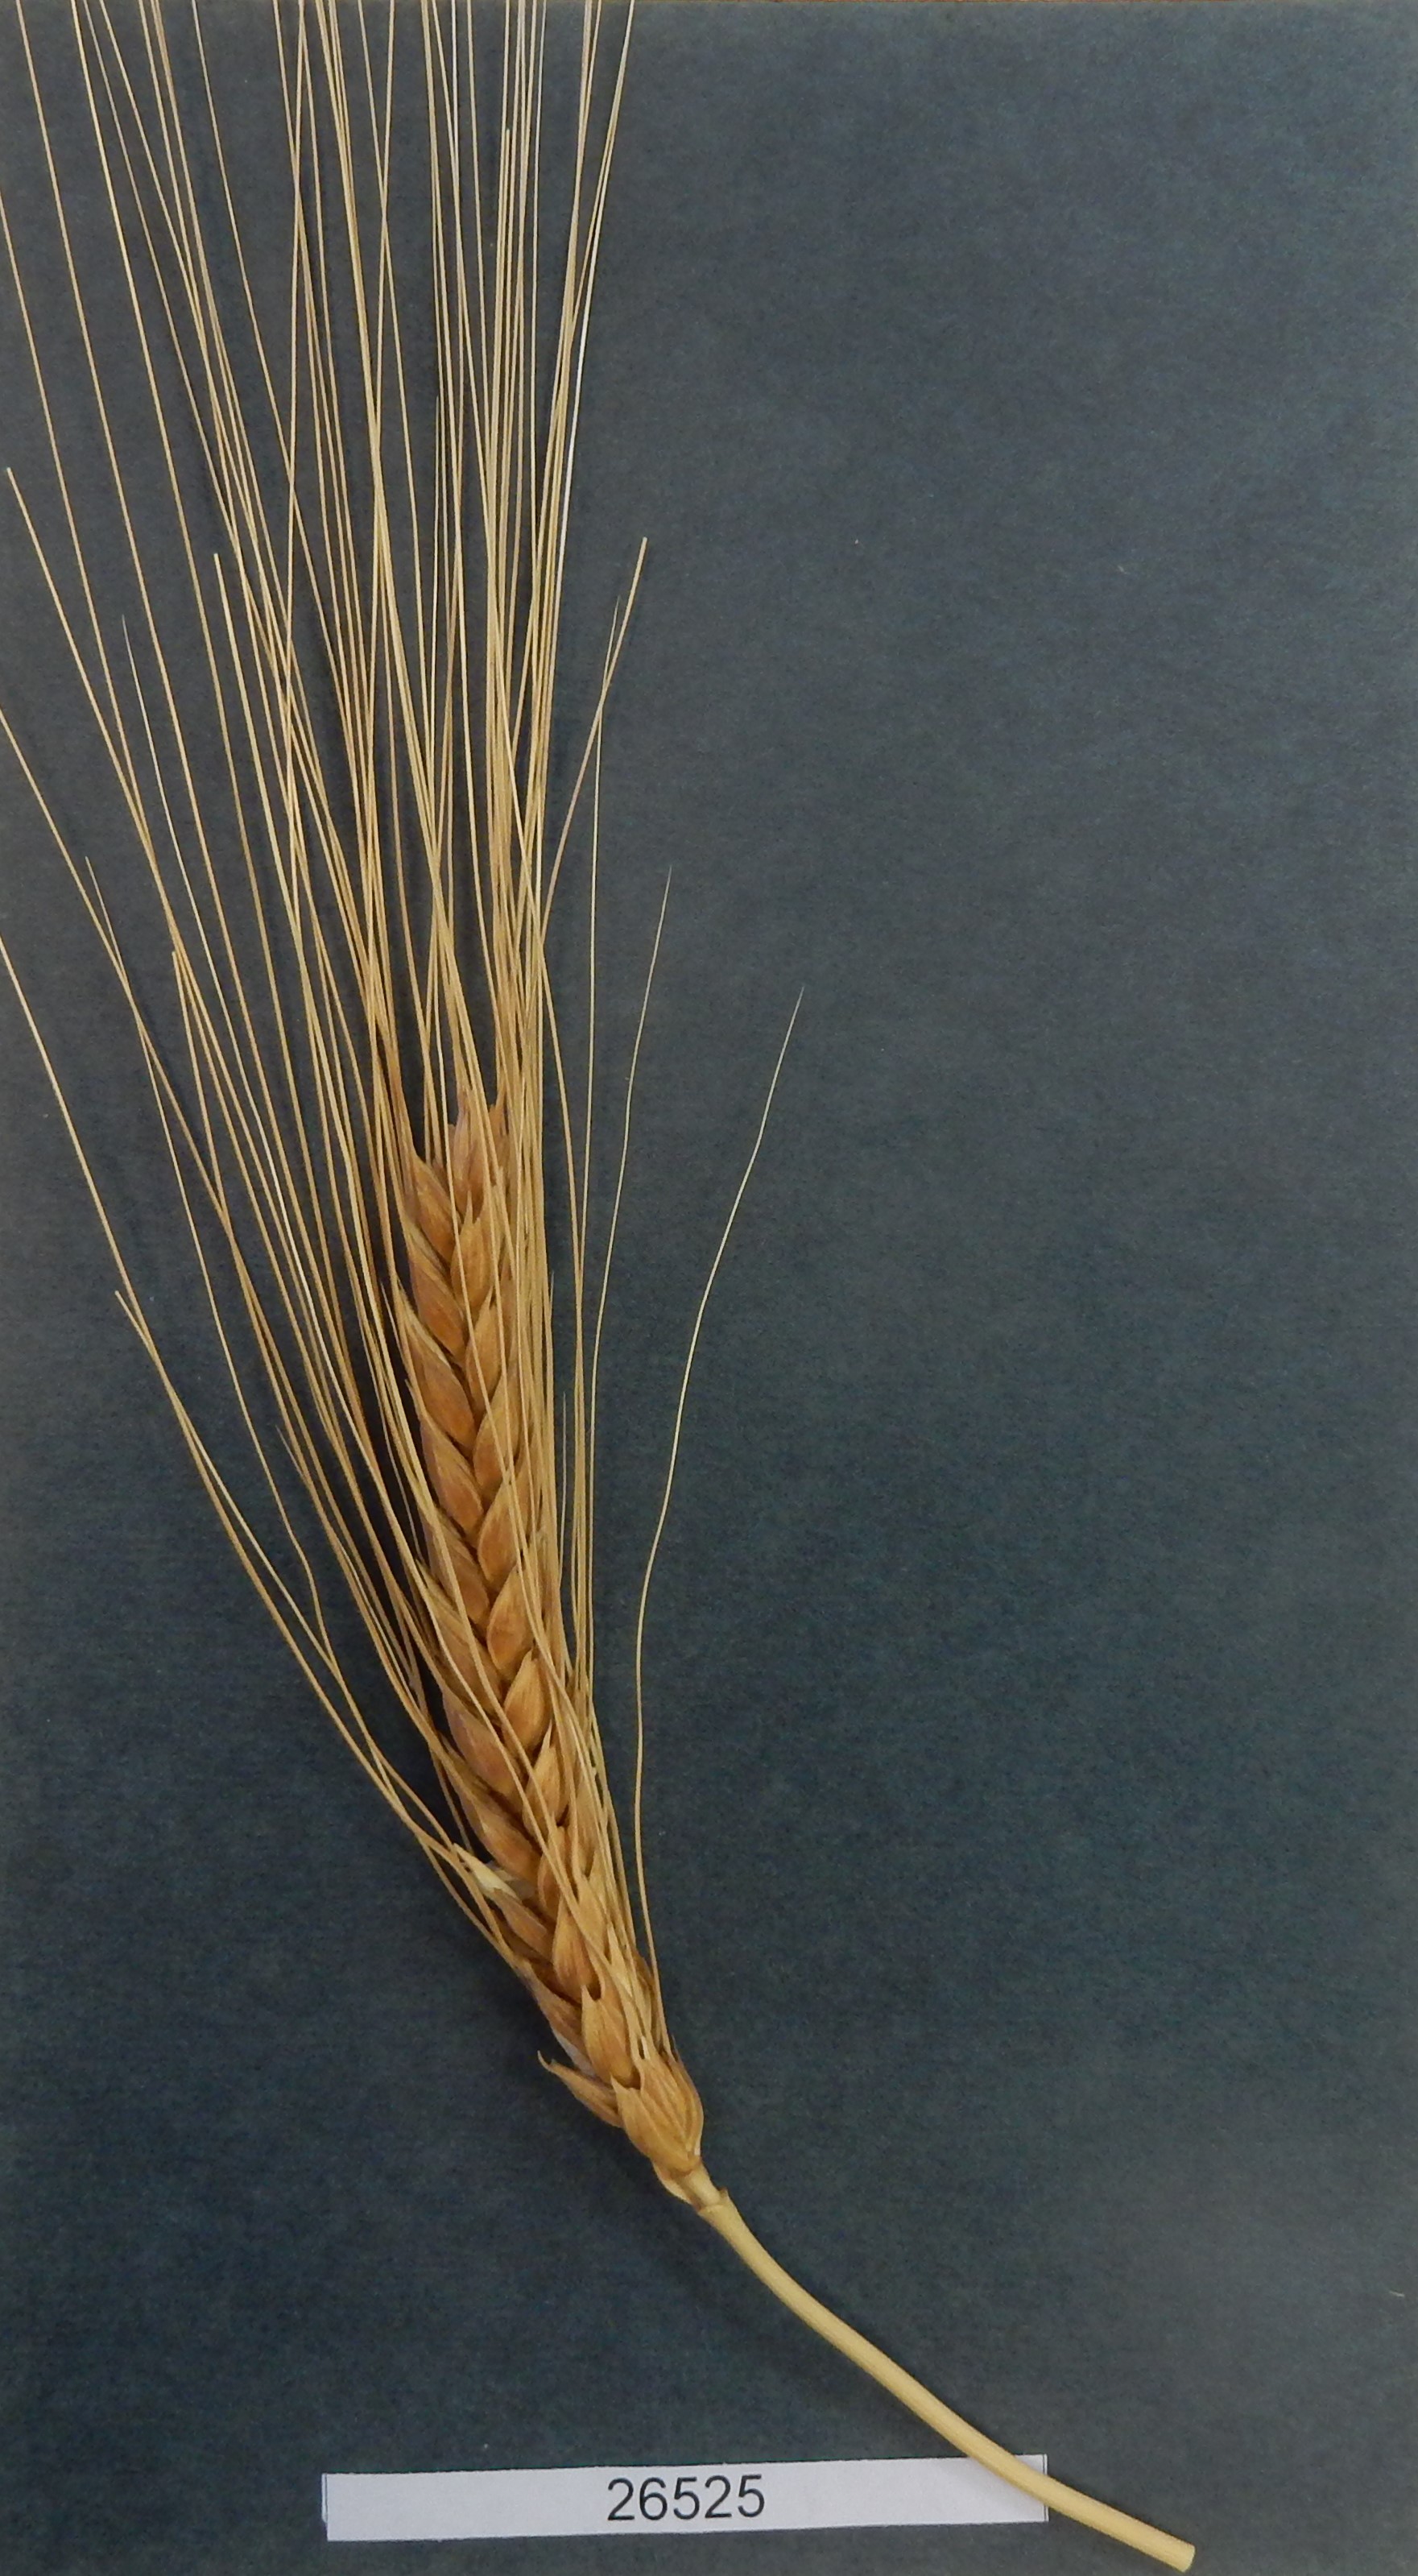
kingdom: Plantae
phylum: Tracheophyta
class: Liliopsida
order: Poales
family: Poaceae
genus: Sorghum
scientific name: Sorghum bicolor
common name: Wheat
